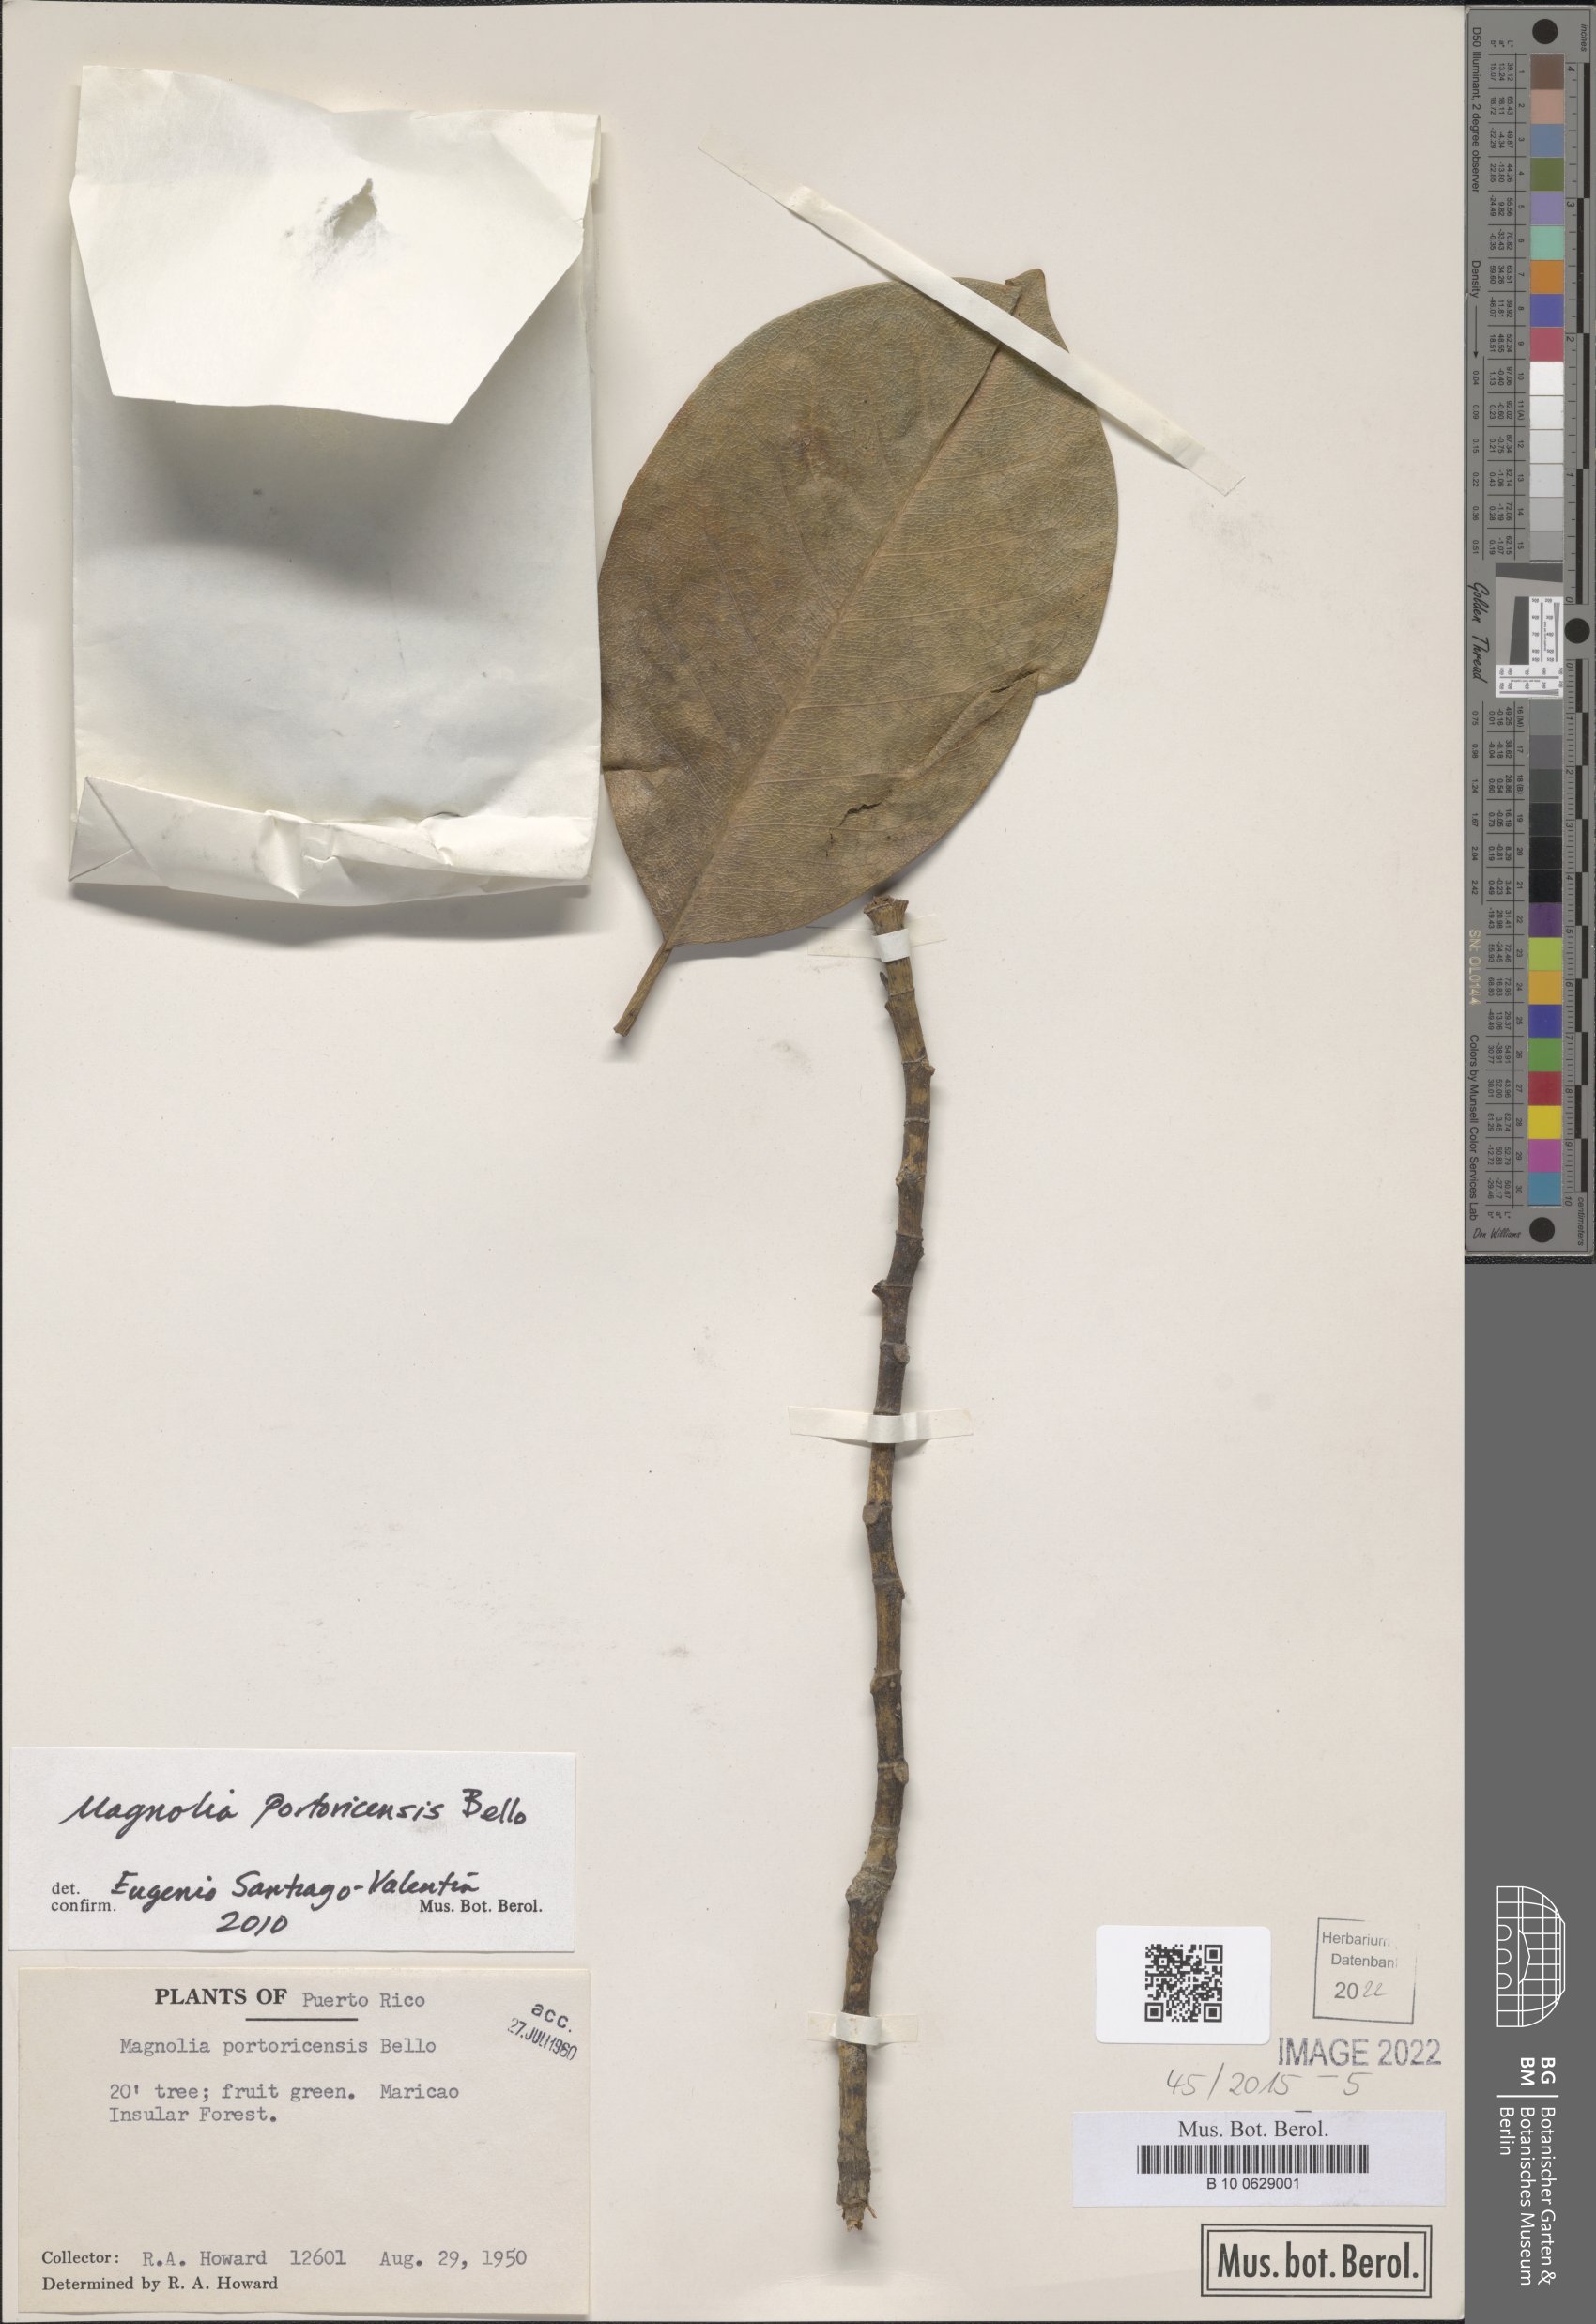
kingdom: Plantae
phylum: Tracheophyta
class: Magnoliopsida
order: Magnoliales
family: Magnoliaceae
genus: Magnolia
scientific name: Magnolia portoricensis
